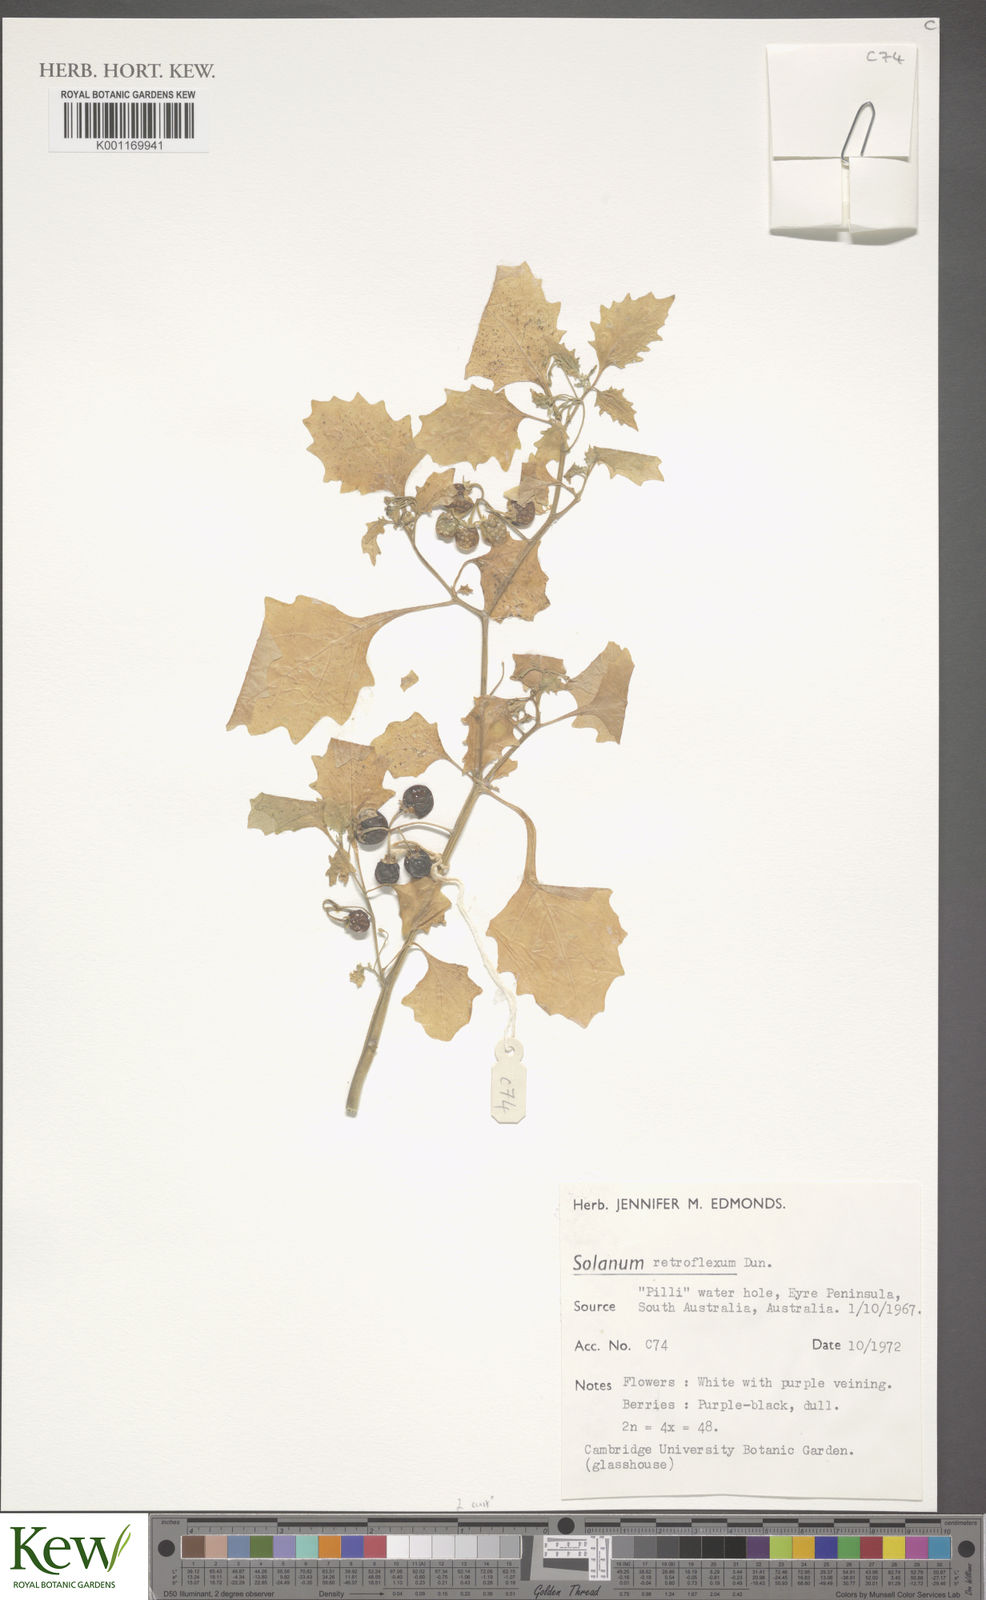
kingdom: Plantae
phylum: Tracheophyta
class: Magnoliopsida
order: Solanales
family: Solanaceae
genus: Solanum
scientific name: Solanum retroflexum
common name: Wonderberry
